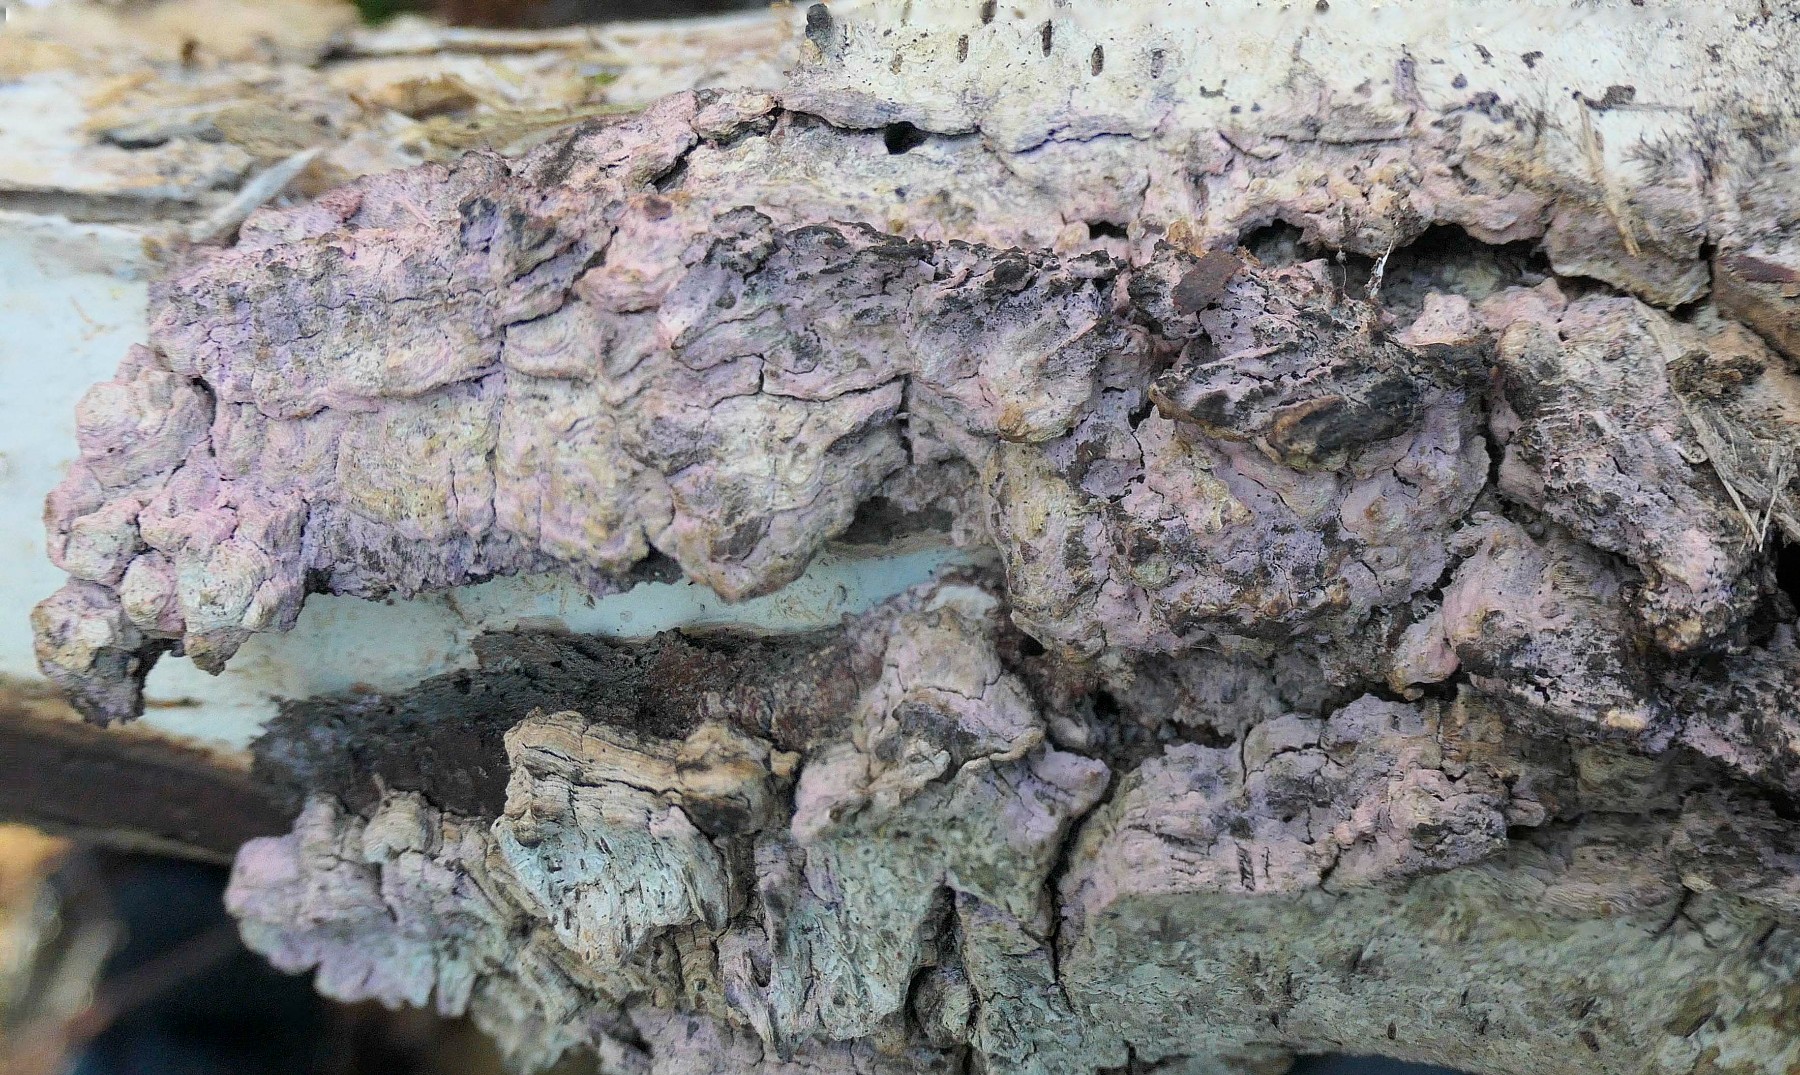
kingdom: Fungi
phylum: Basidiomycota
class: Agaricomycetes
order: Cantharellales
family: Tulasnellaceae
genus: Tulasnella
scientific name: Tulasnella violea
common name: violet ballonhinde
